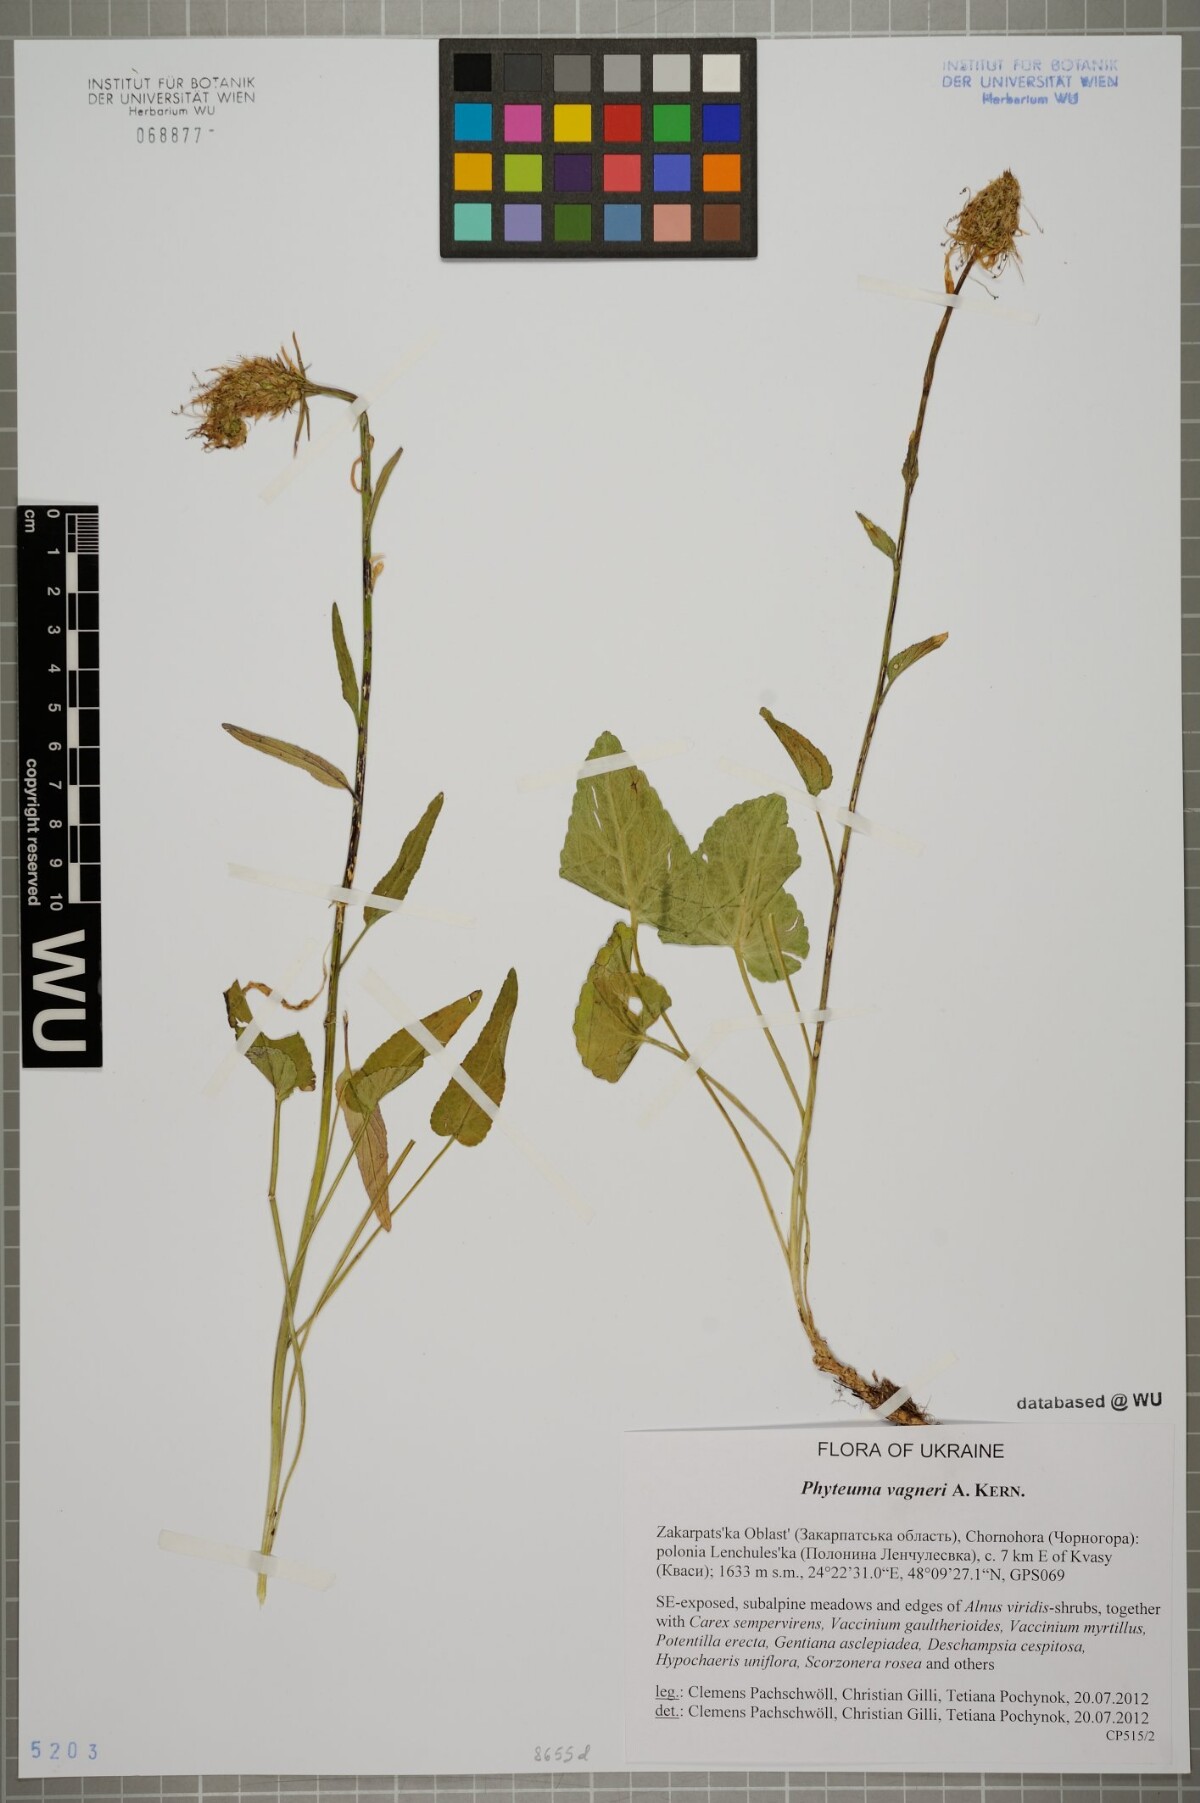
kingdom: Plantae
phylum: Tracheophyta
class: Magnoliopsida
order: Asterales
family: Campanulaceae
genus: Phyteuma
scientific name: Phyteuma vagneri
